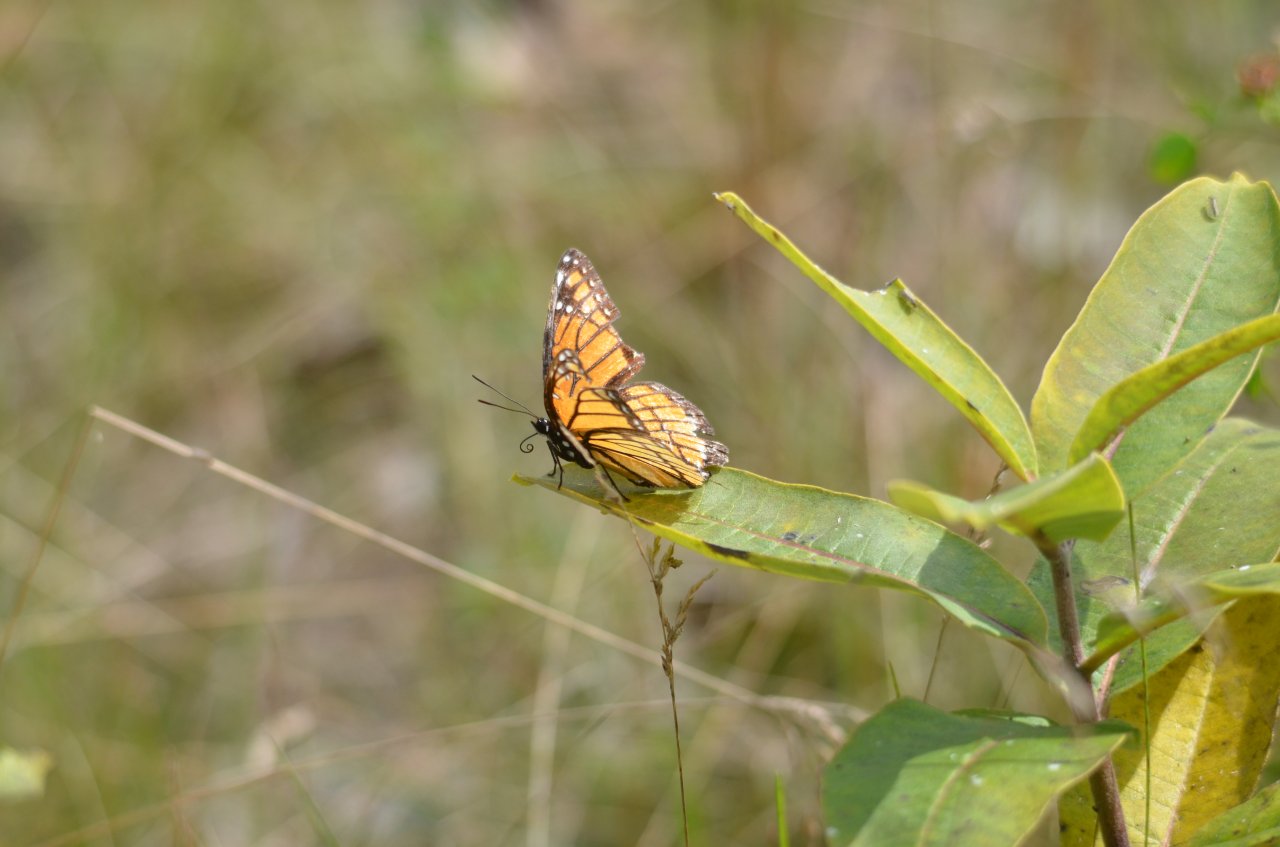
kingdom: Animalia
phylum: Arthropoda
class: Insecta
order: Lepidoptera
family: Nymphalidae
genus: Limenitis
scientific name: Limenitis archippus
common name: Viceroy
